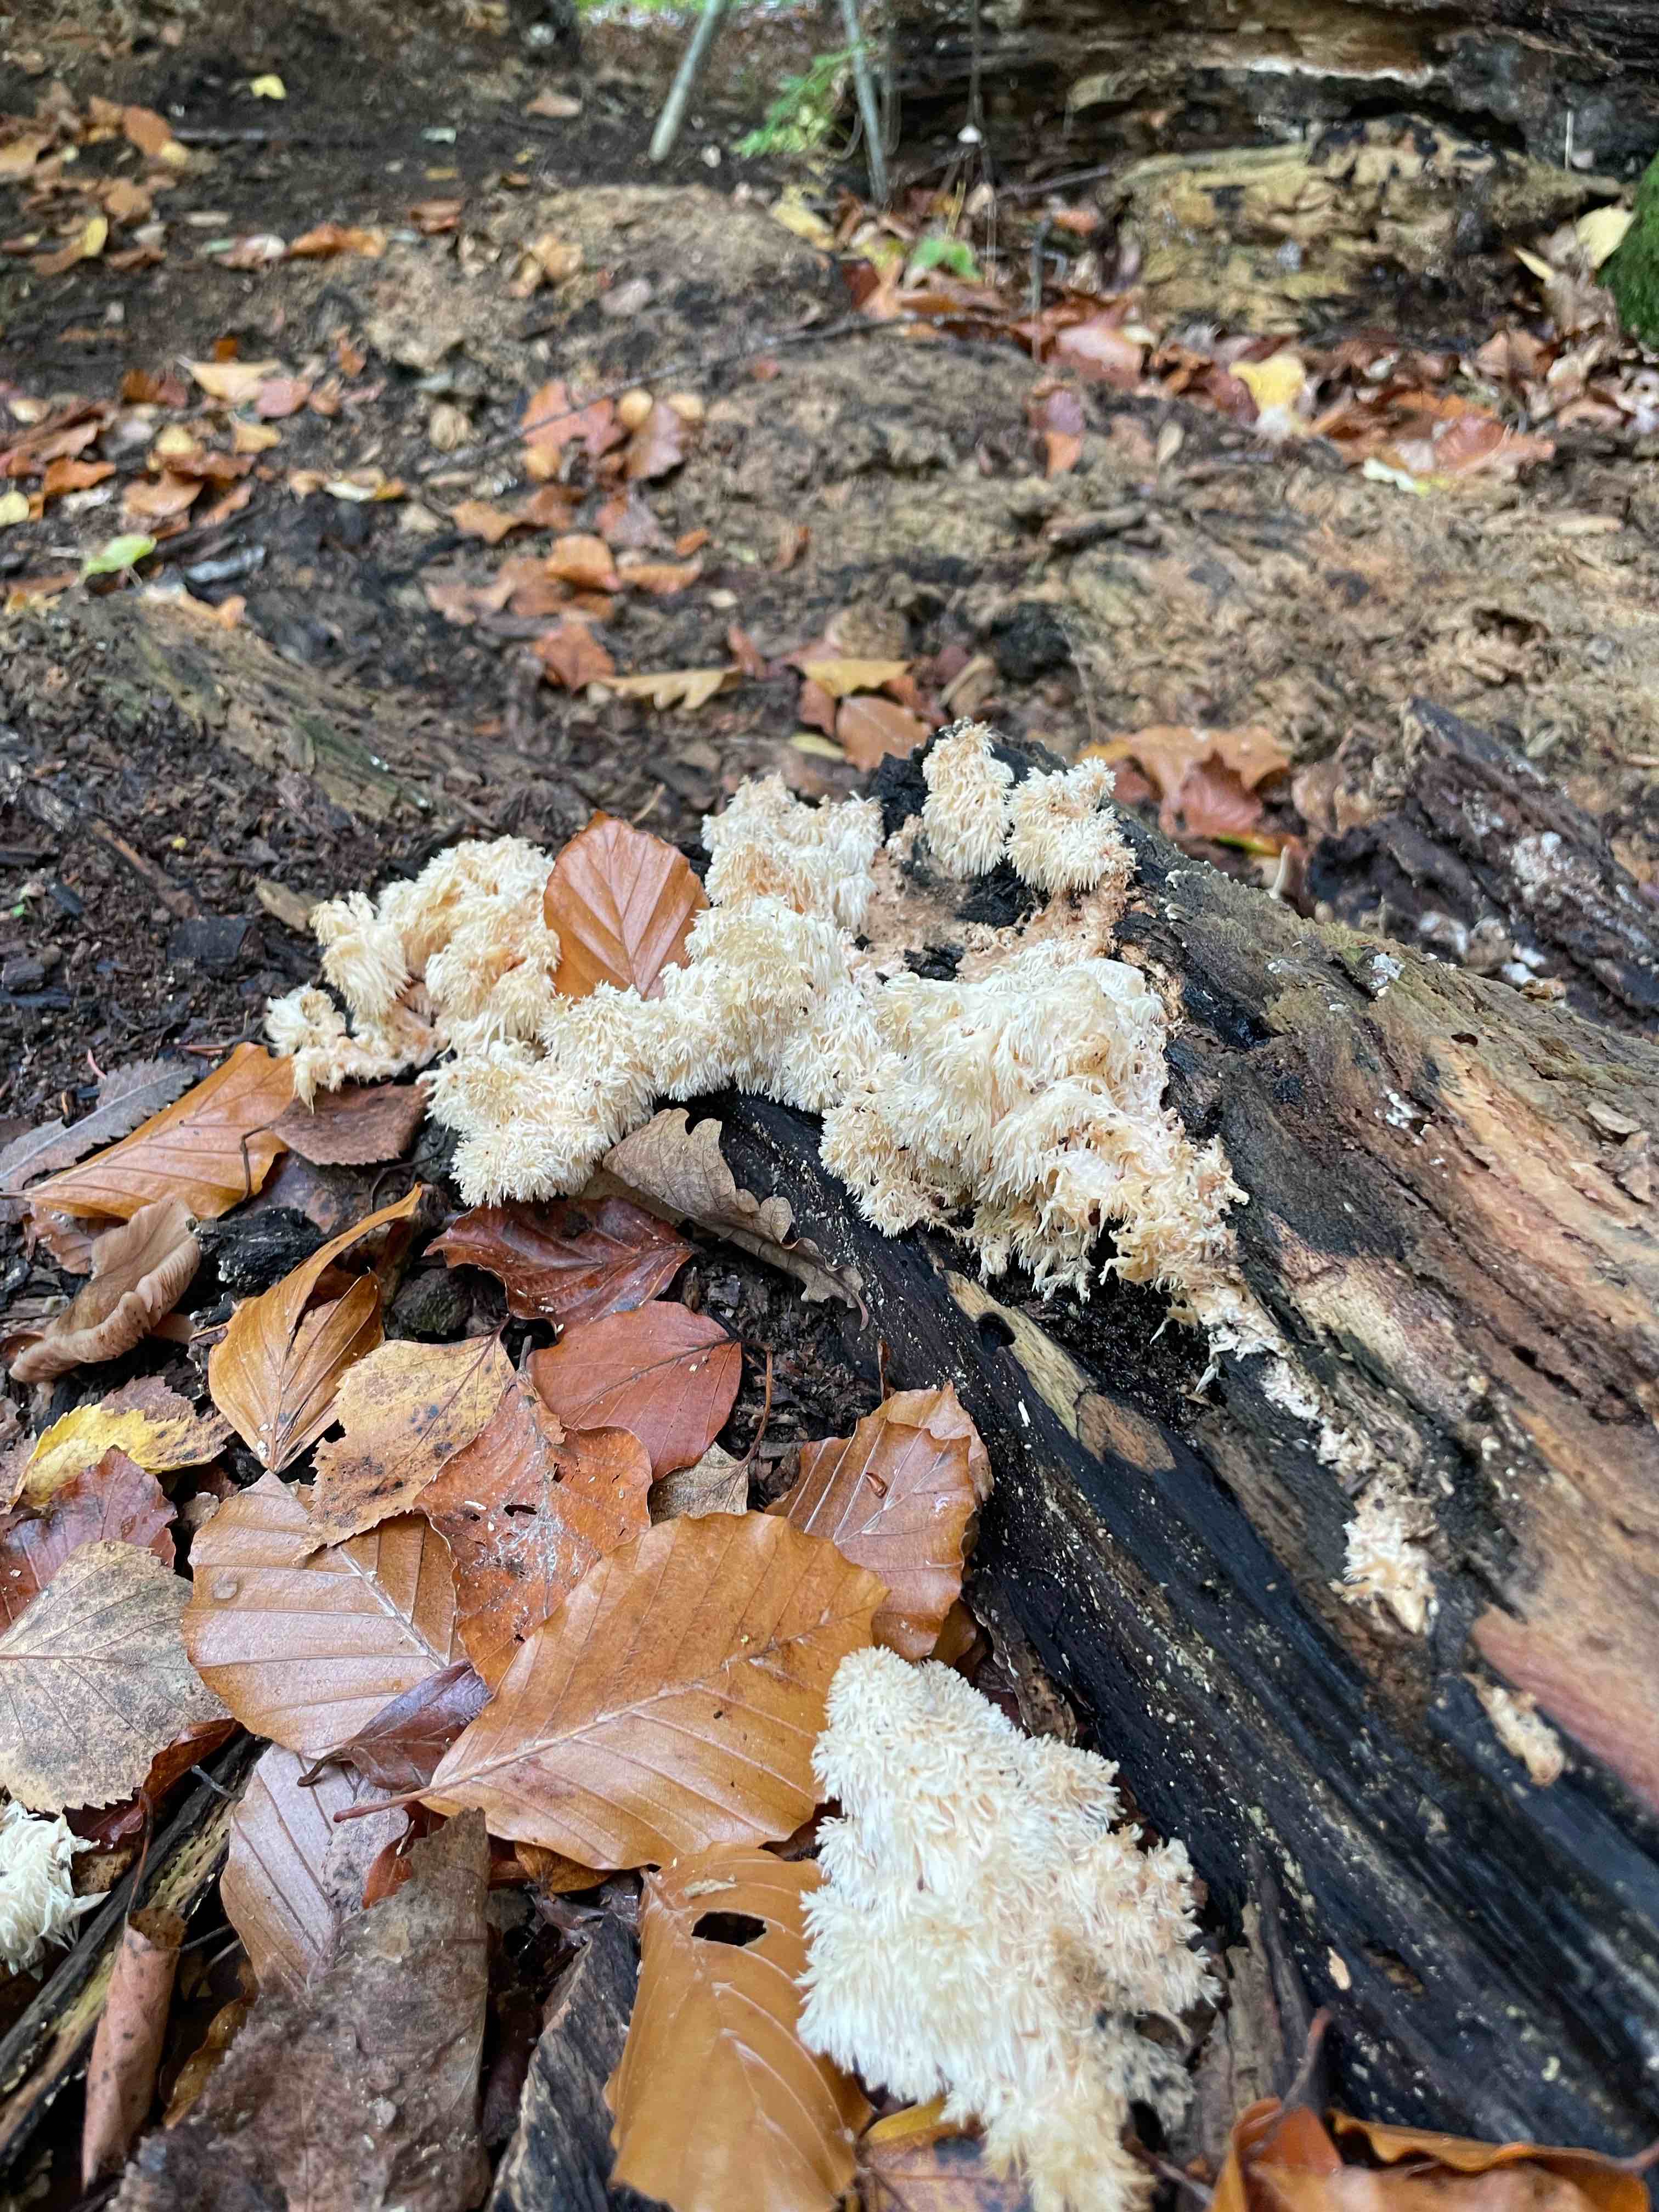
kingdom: Fungi
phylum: Basidiomycota
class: Agaricomycetes
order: Russulales
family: Hericiaceae
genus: Hericium
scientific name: Hericium coralloides
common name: koralpigsvamp
